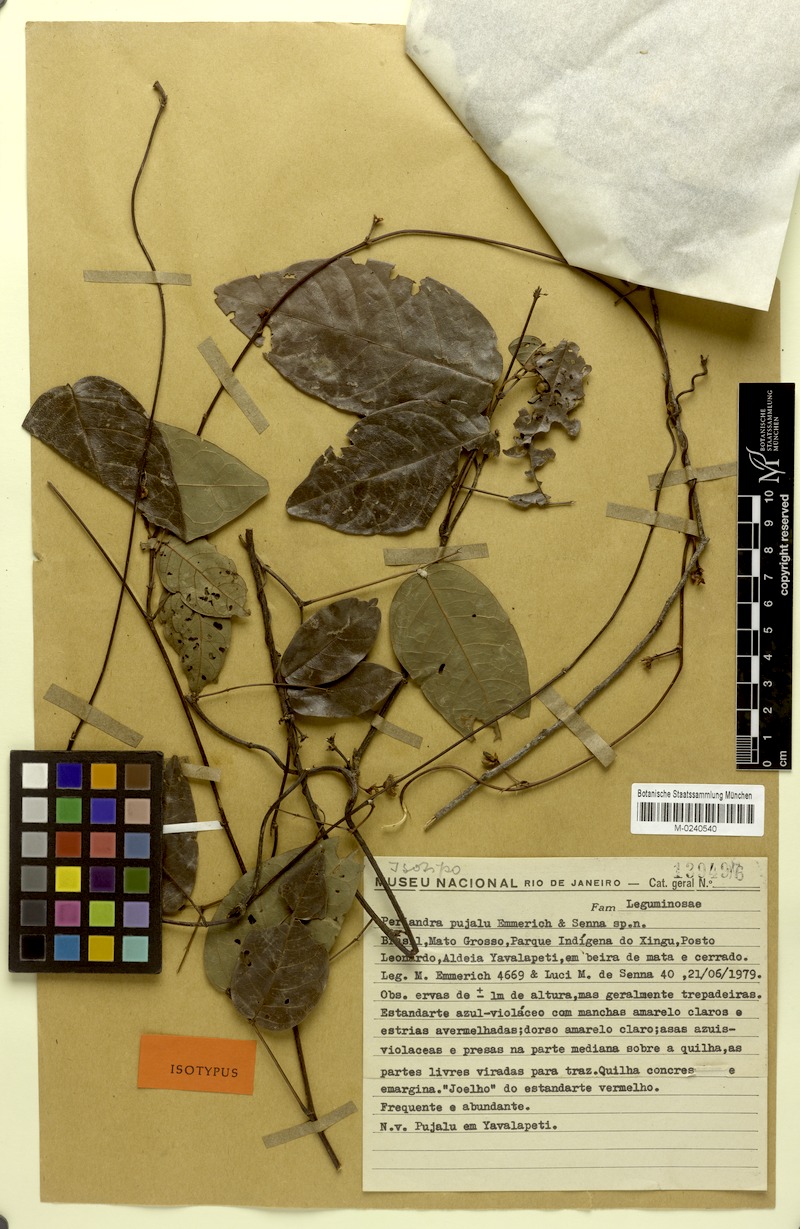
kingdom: Plantae
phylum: Tracheophyta
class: Magnoliopsida
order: Fabales
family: Fabaceae
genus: Periandra
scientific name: Periandra pujalu
